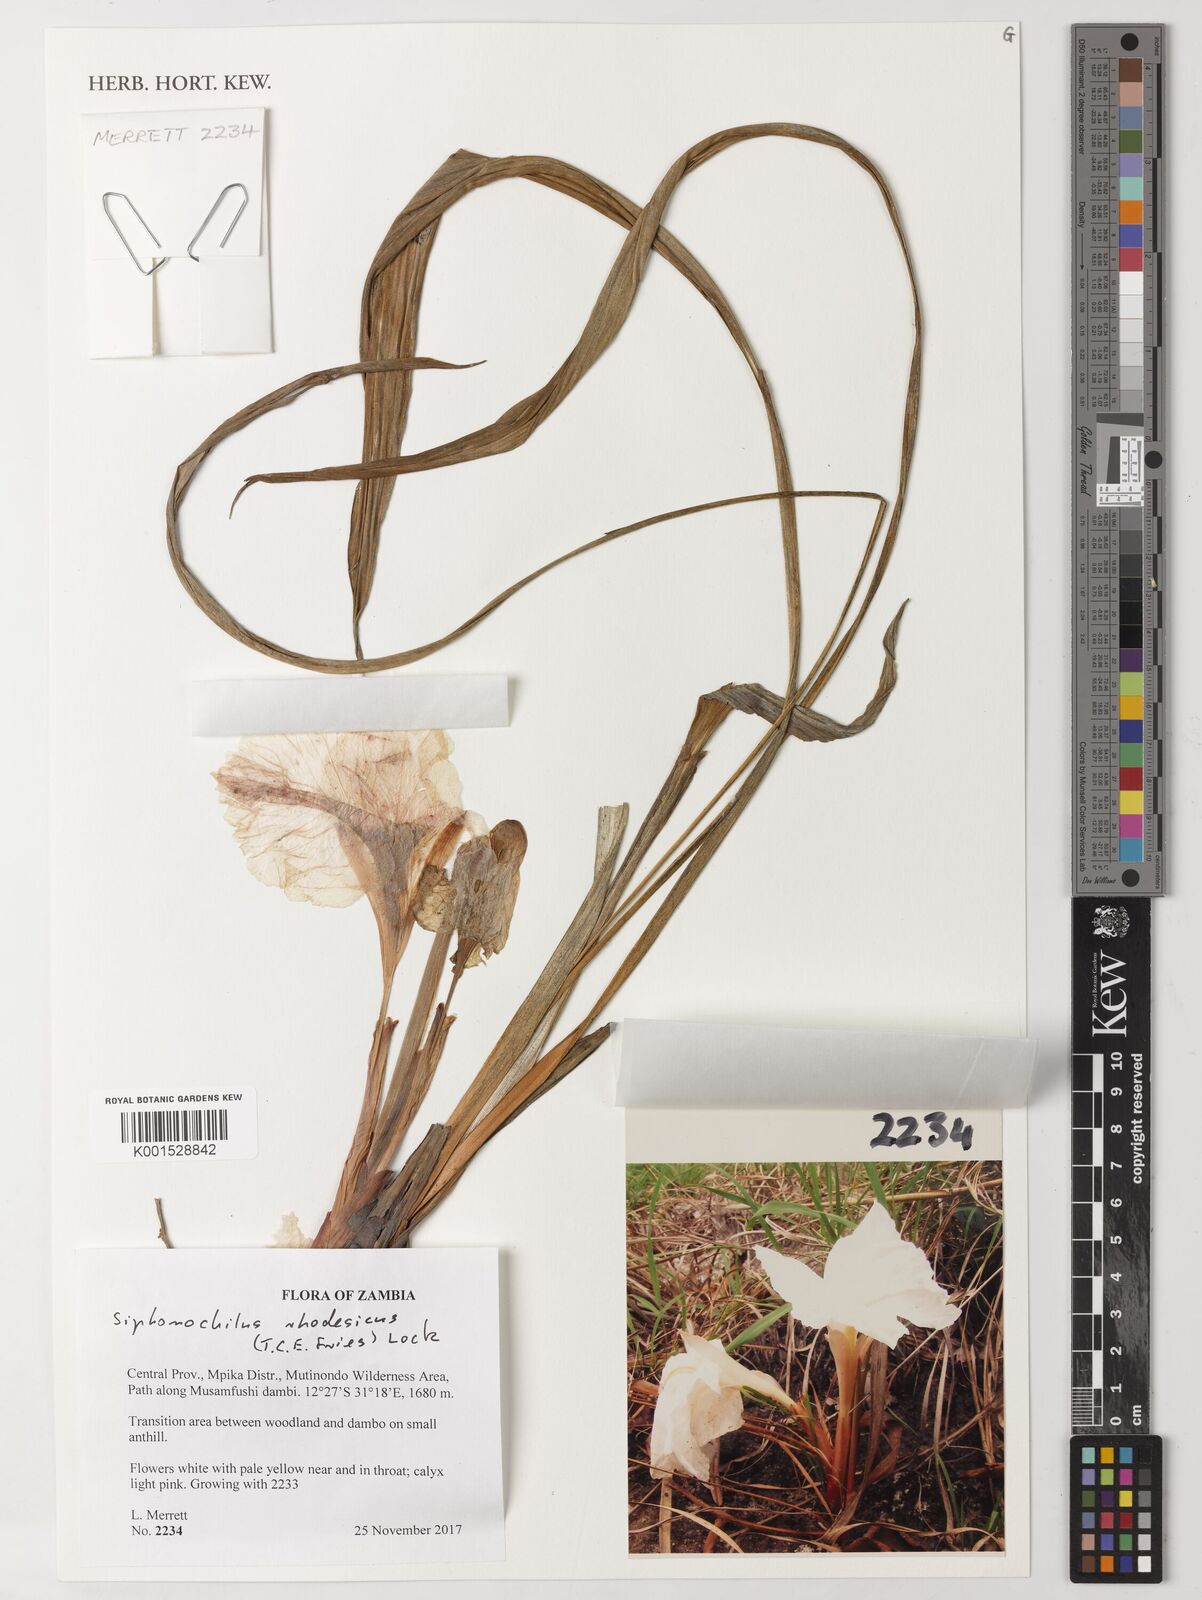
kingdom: Plantae
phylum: Tracheophyta
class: Liliopsida
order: Zingiberales
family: Zingiberaceae
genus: Siphonochilus
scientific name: Siphonochilus rhodesicus
